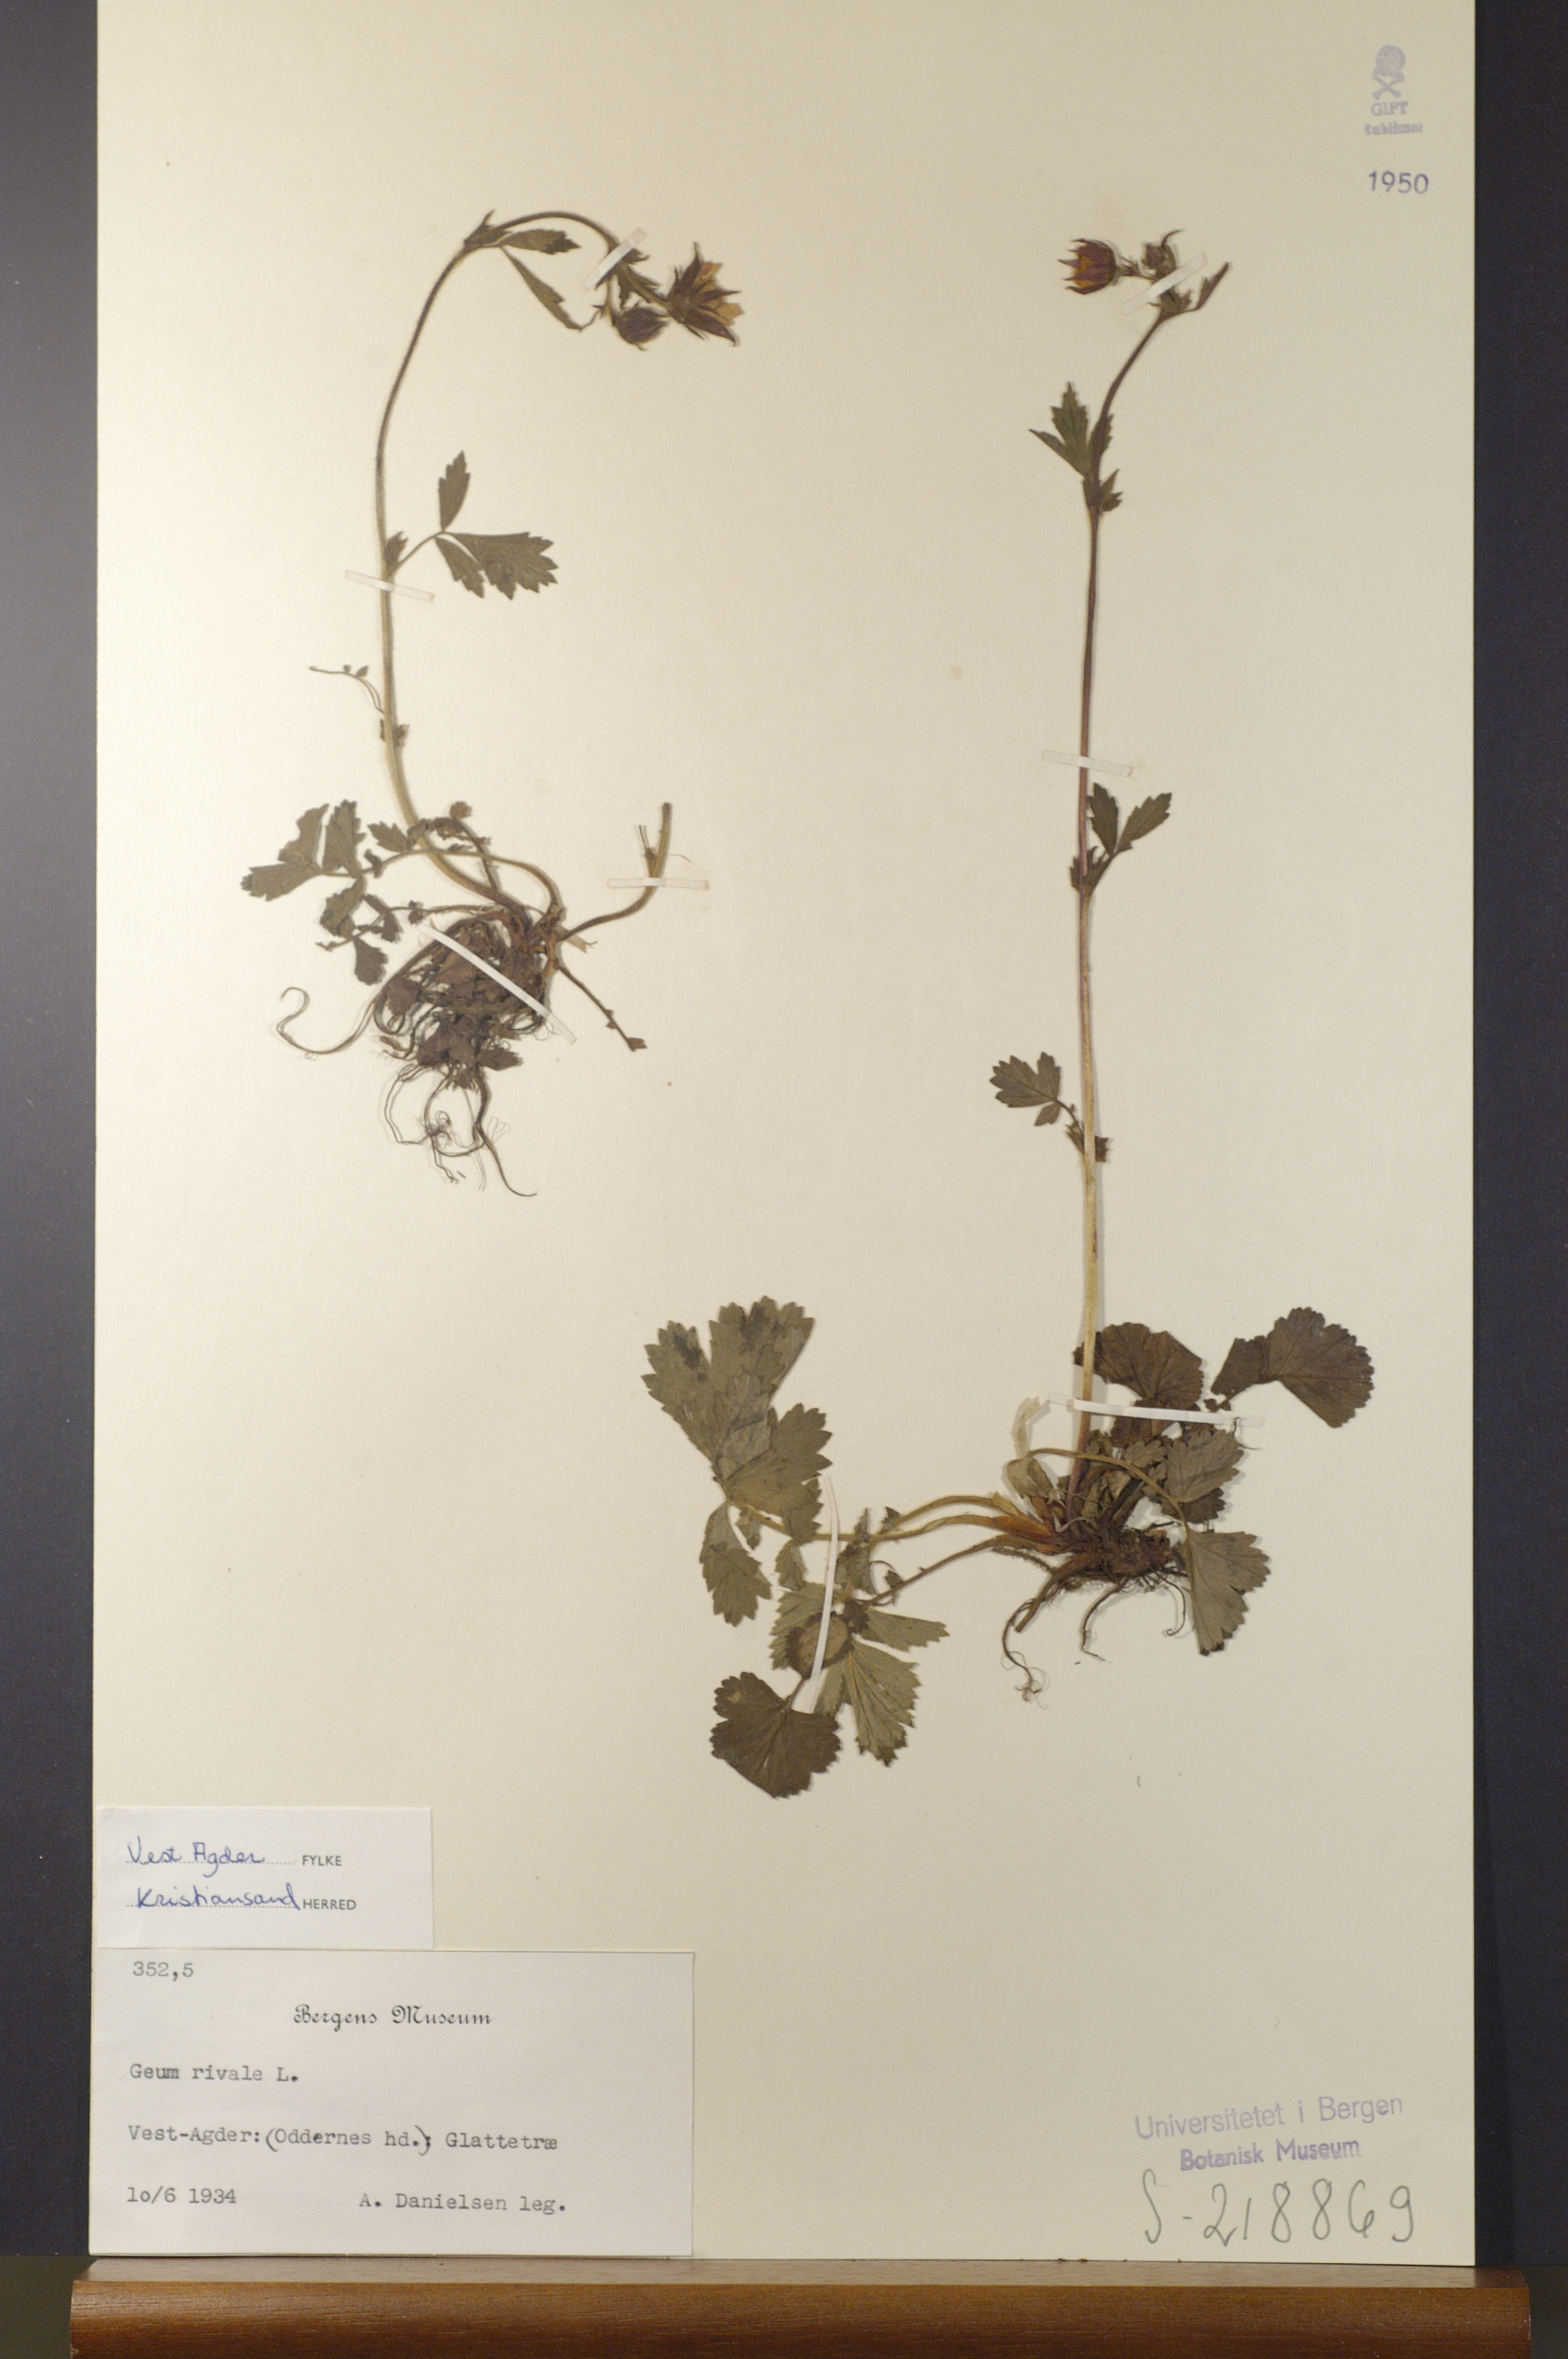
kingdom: Plantae
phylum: Tracheophyta
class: Magnoliopsida
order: Rosales
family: Rosaceae
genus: Geum
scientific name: Geum rivale
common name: Water avens
